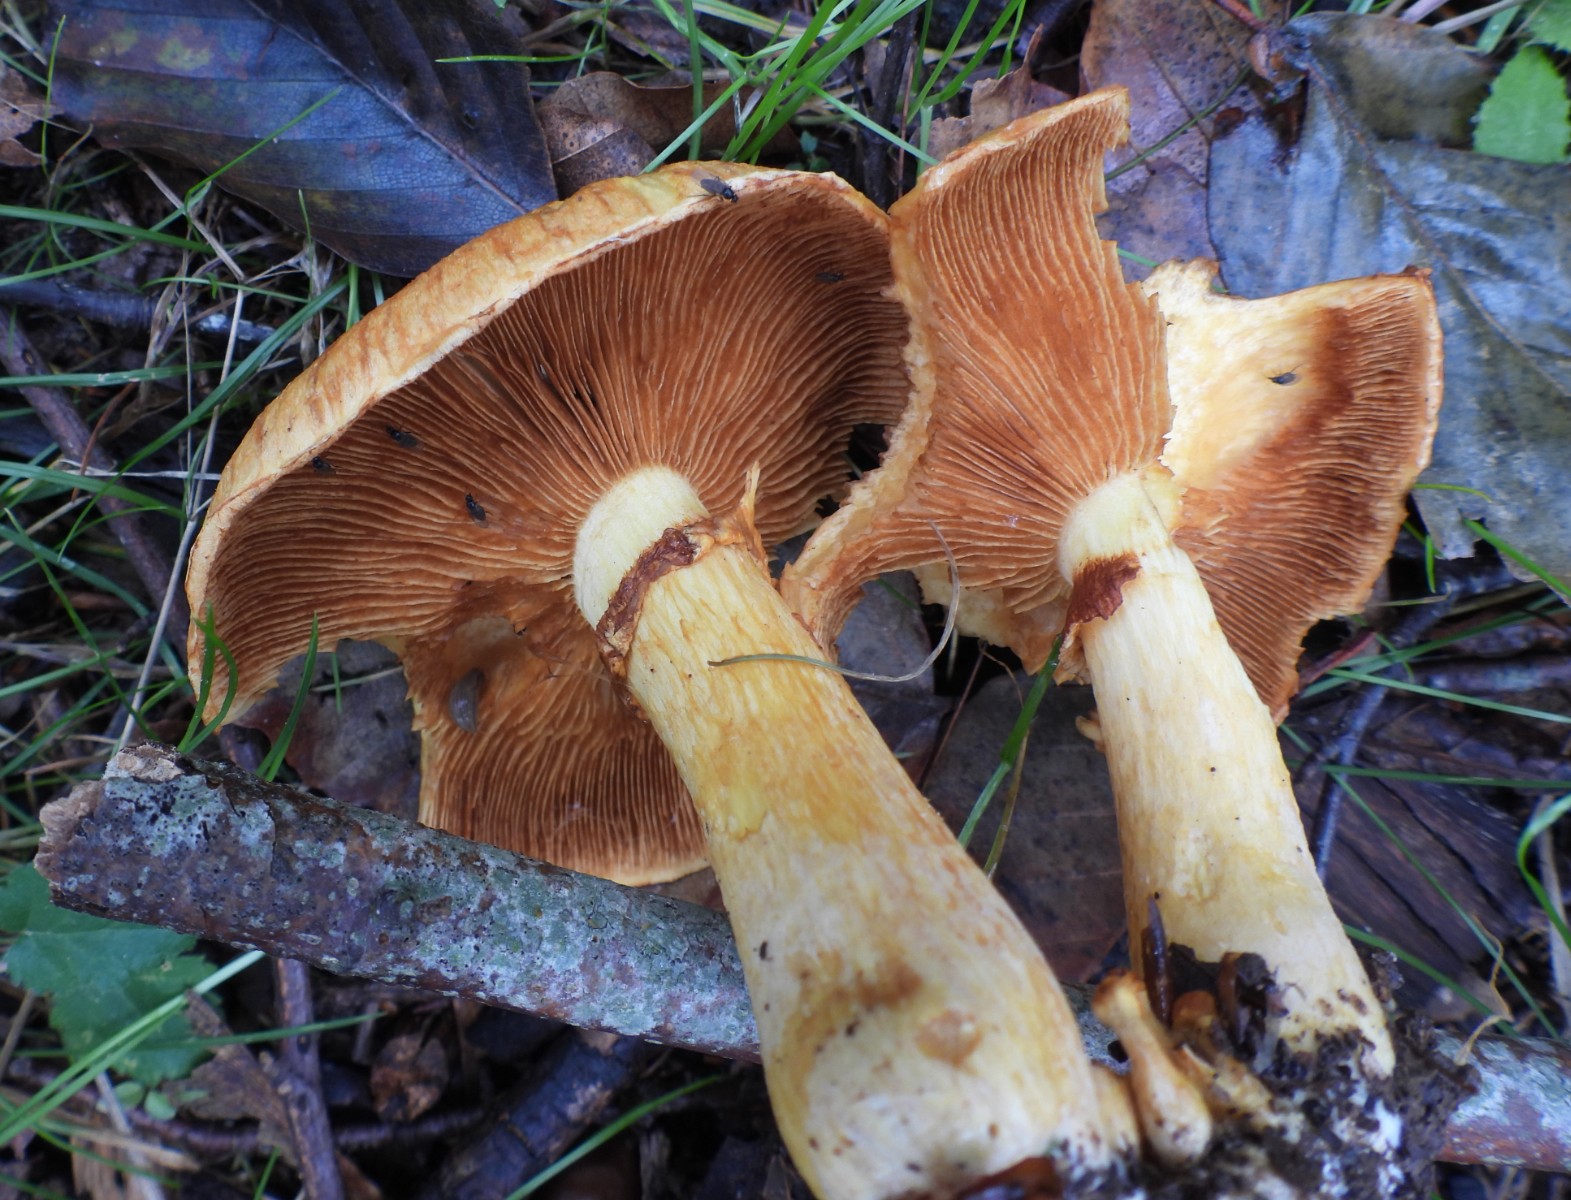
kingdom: Fungi
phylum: Basidiomycota
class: Agaricomycetes
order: Agaricales
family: Hymenogastraceae
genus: Gymnopilus
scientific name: Gymnopilus spectabilis
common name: fibret flammehat
